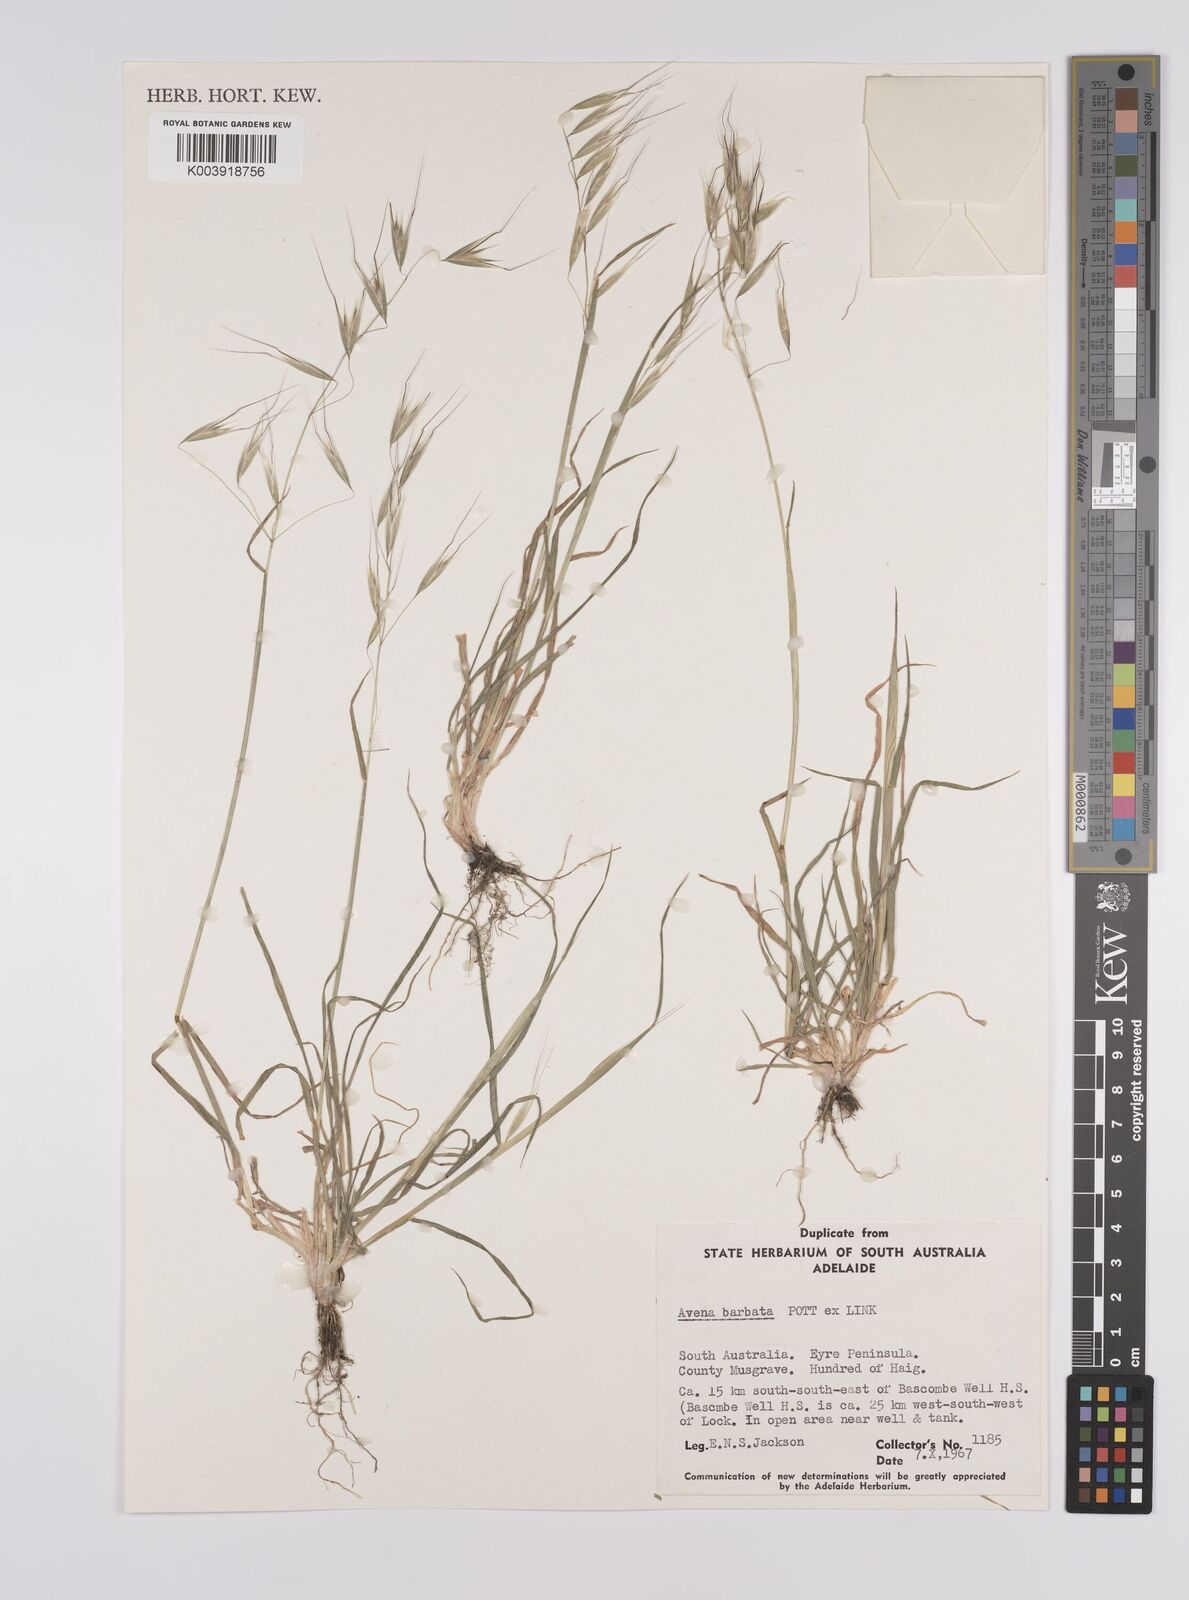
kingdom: Plantae
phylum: Tracheophyta
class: Liliopsida
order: Poales
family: Poaceae
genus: Avena
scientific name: Avena
